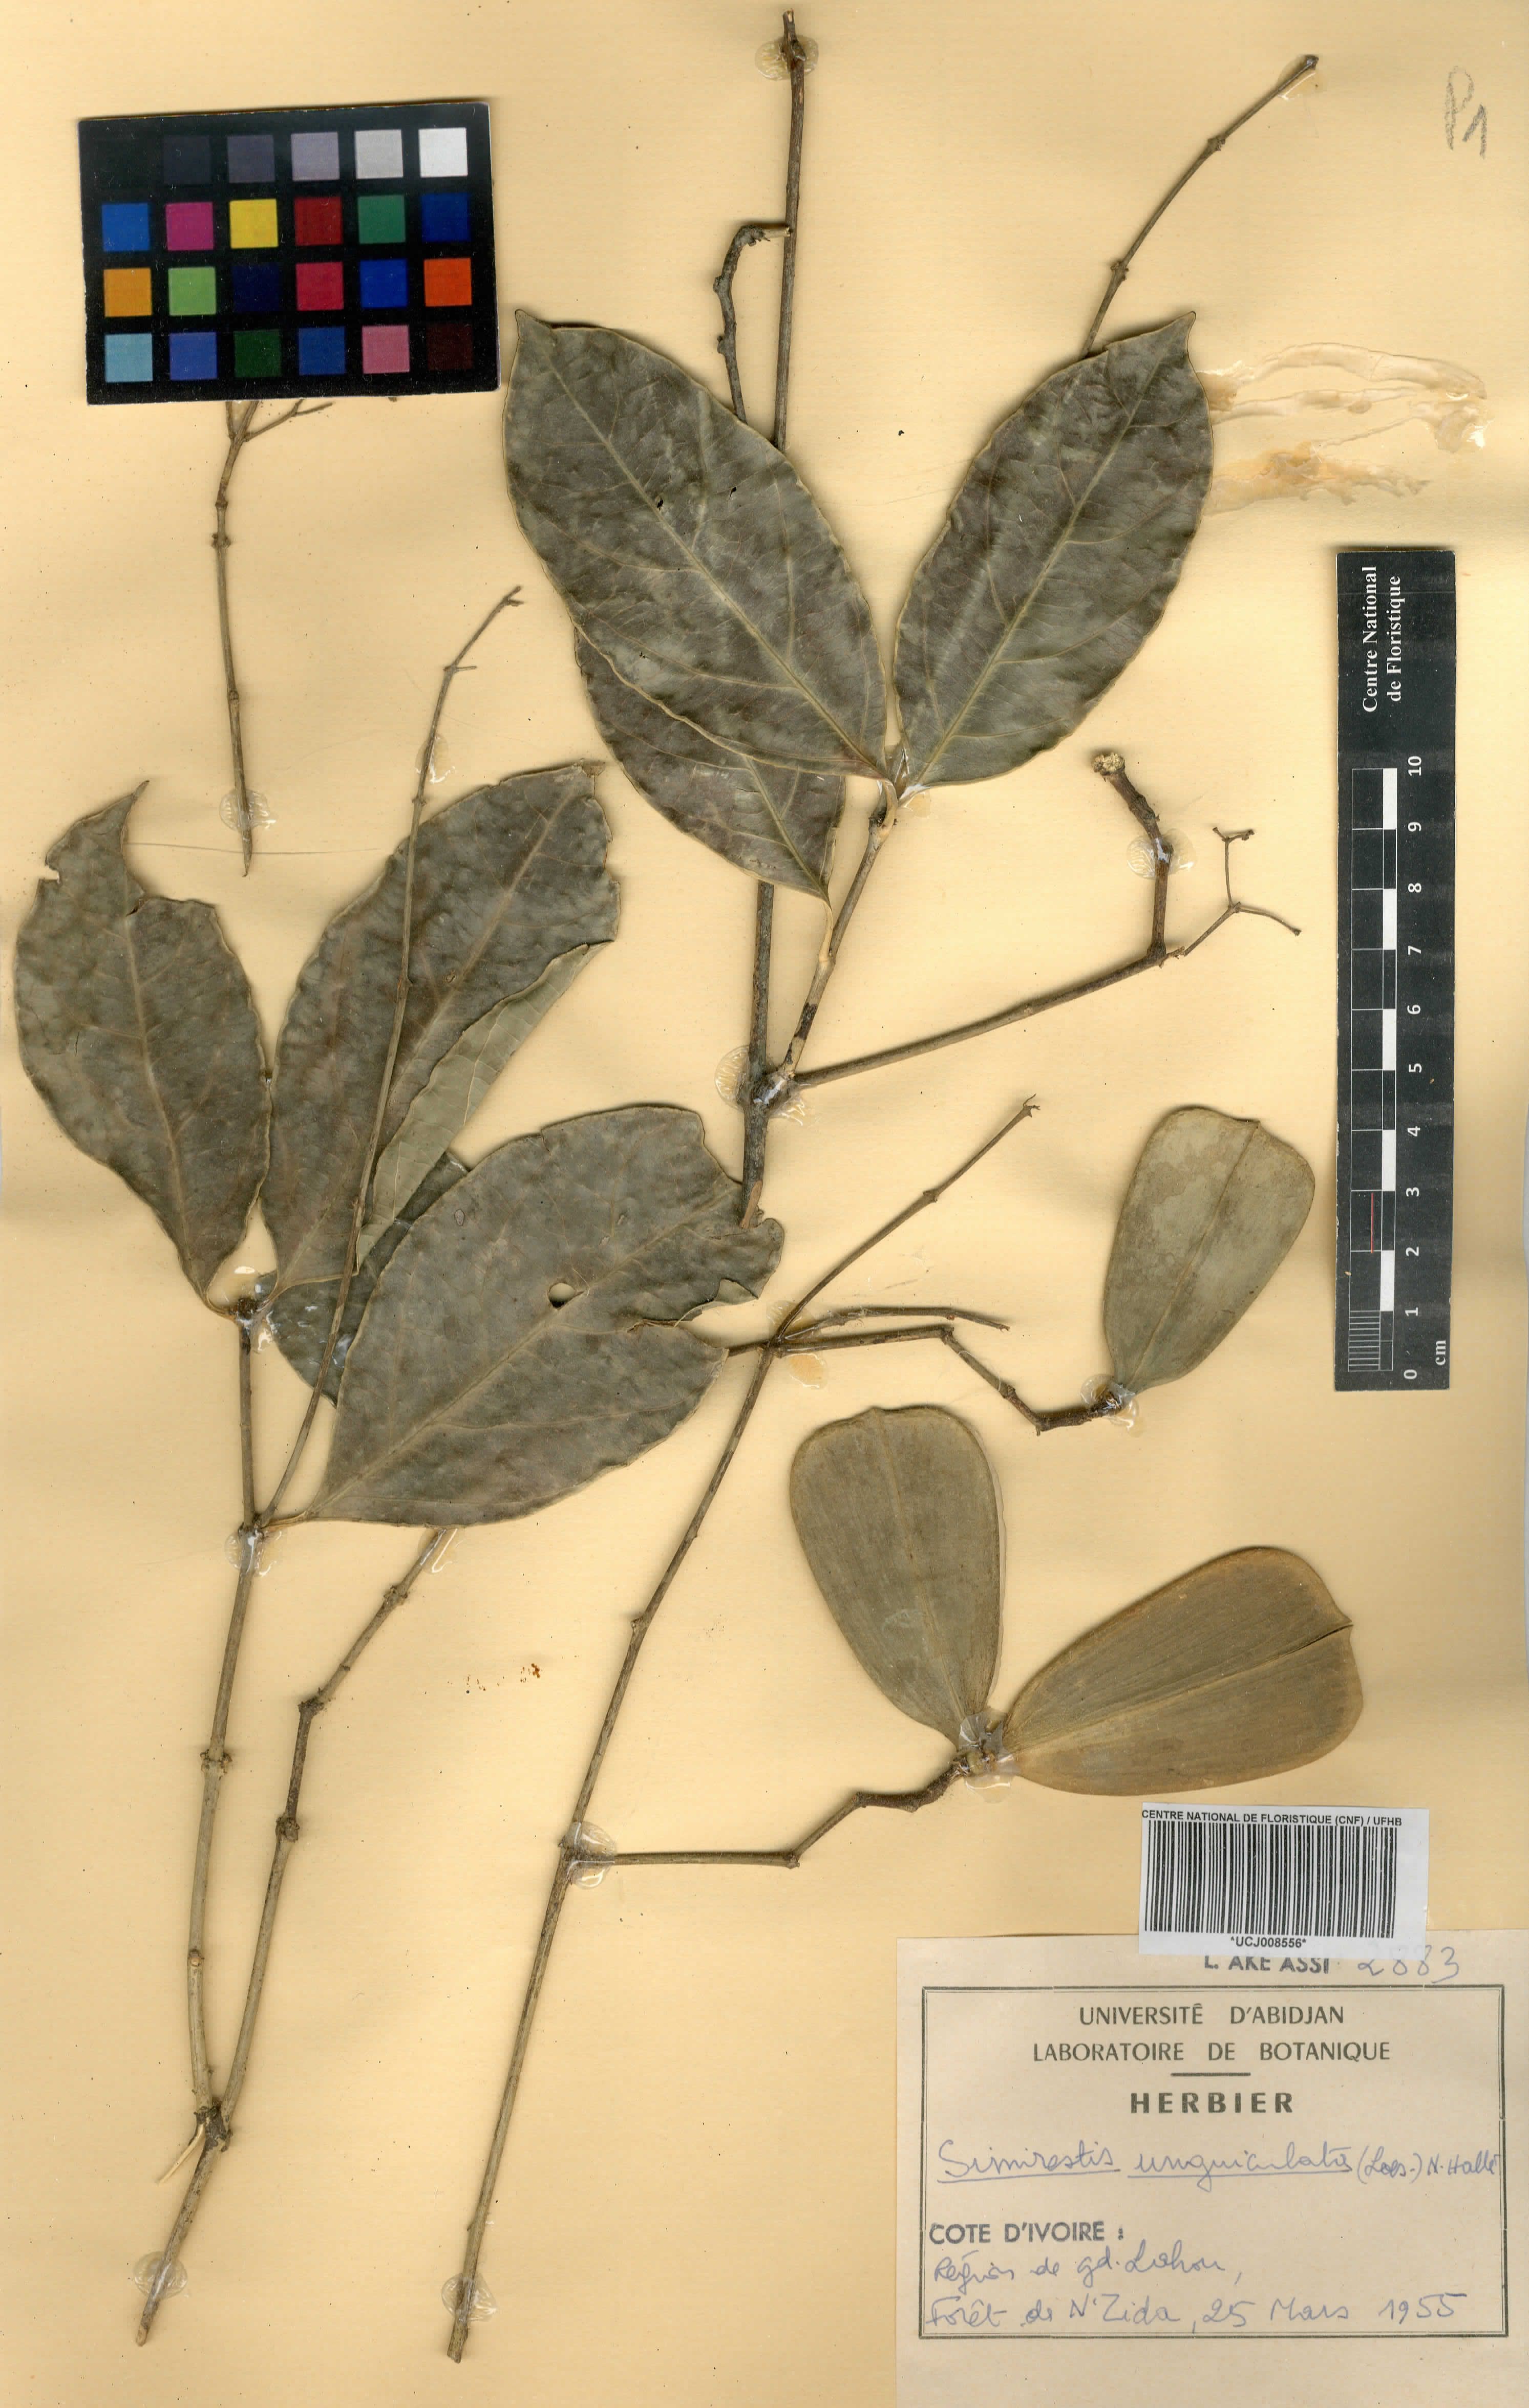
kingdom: Plantae
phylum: Tracheophyta
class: Magnoliopsida
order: Celastrales
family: Celastraceae
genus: Pristimera
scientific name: Pristimera unguiculata
